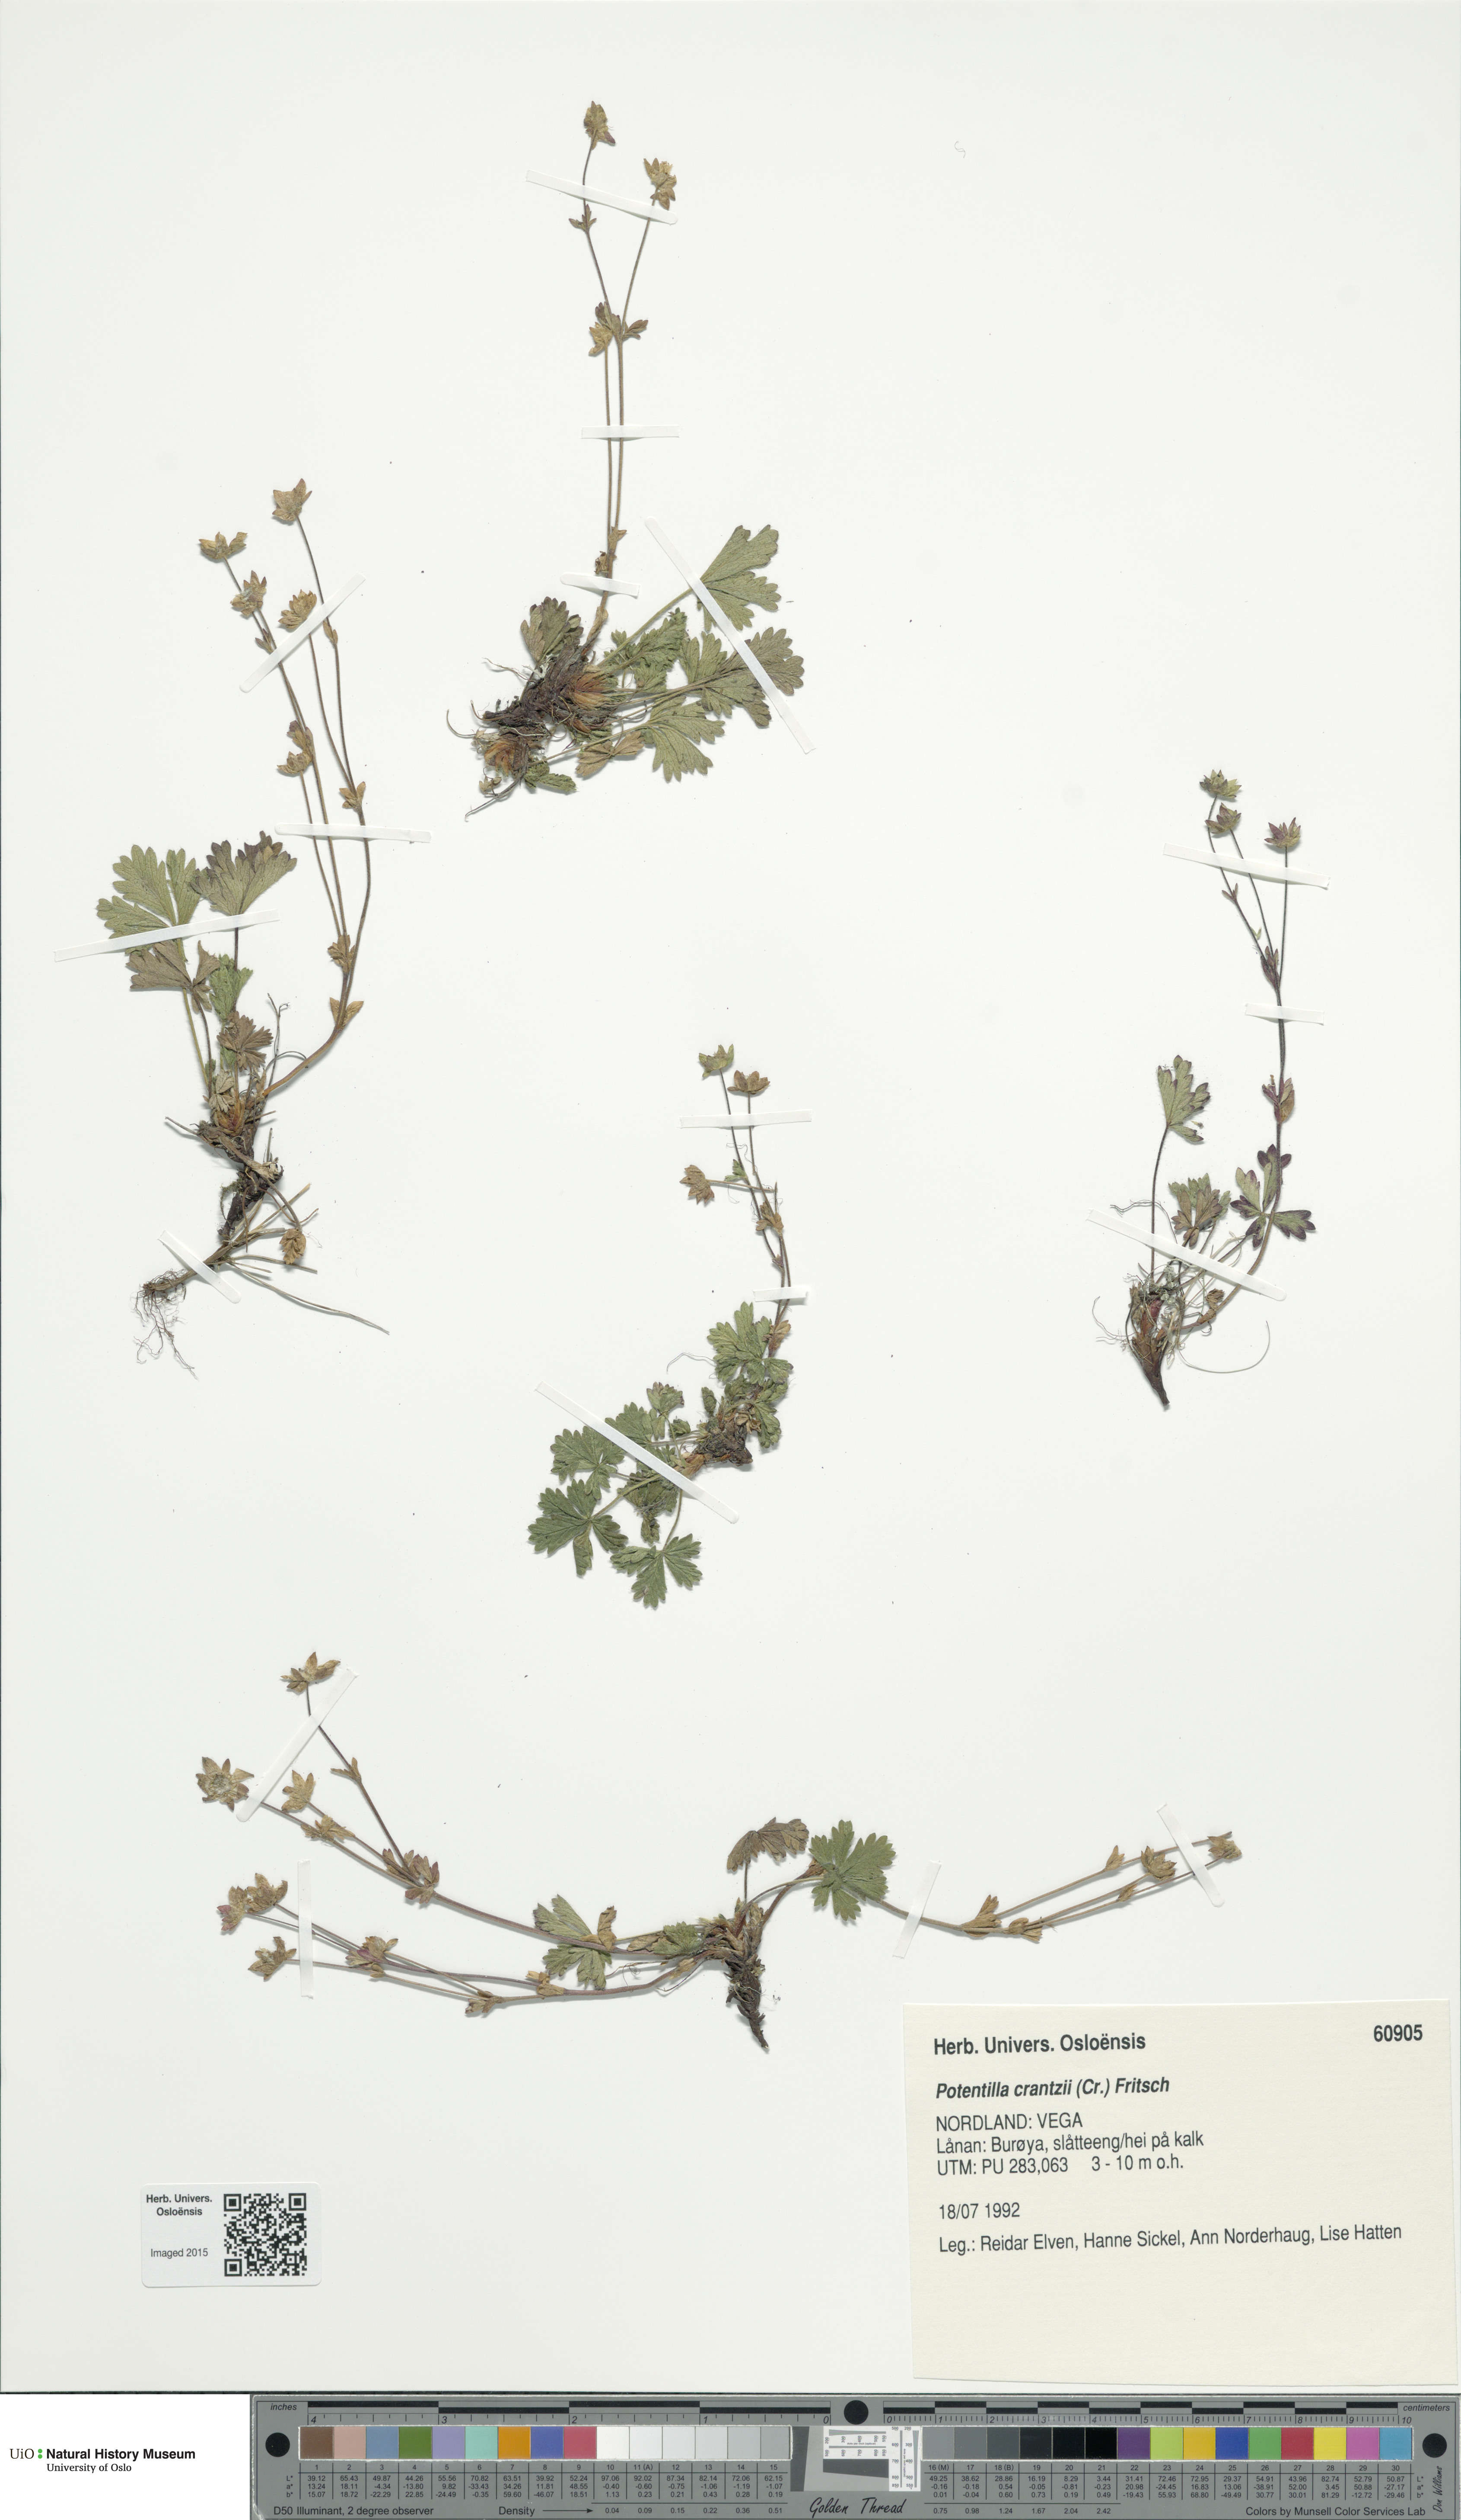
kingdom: Plantae
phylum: Tracheophyta
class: Magnoliopsida
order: Rosales
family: Rosaceae
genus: Potentilla
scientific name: Potentilla crantzii
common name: Alpine cinquefoil
